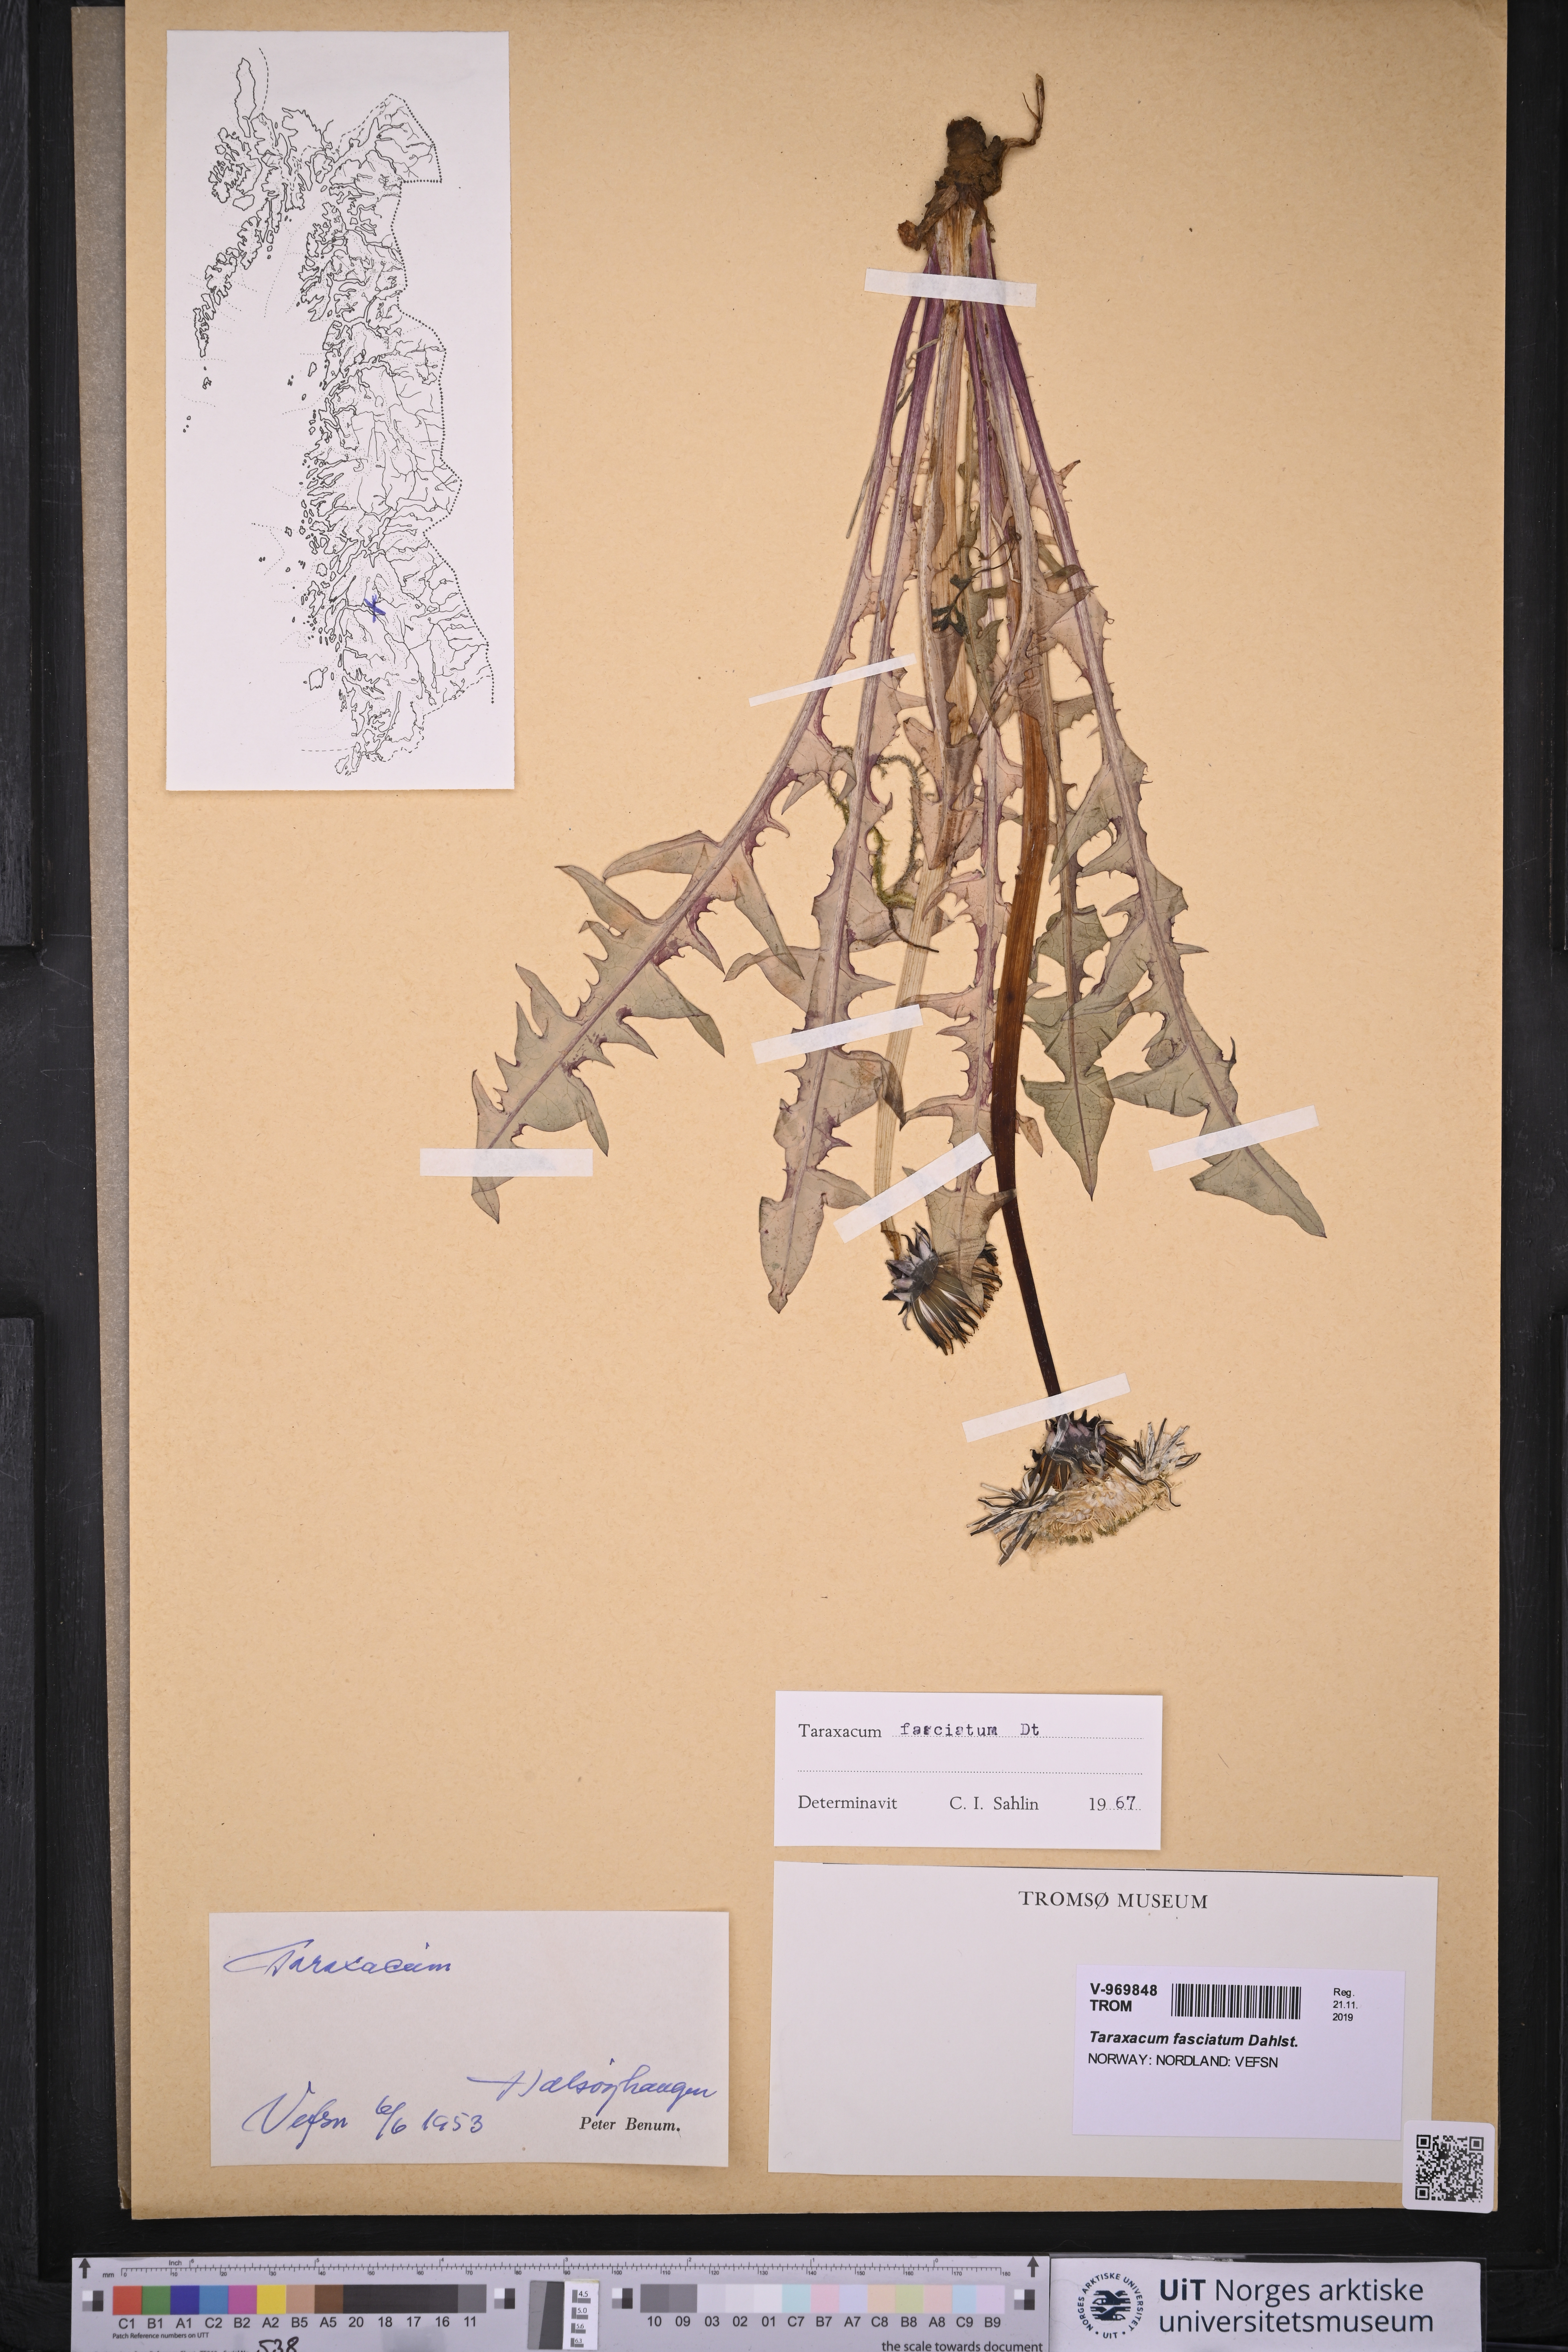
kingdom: Plantae
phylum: Tracheophyta
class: Magnoliopsida
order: Asterales
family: Asteraceae
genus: Taraxacum
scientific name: Taraxacum fasciatum
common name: Dense-bracted dandelion
